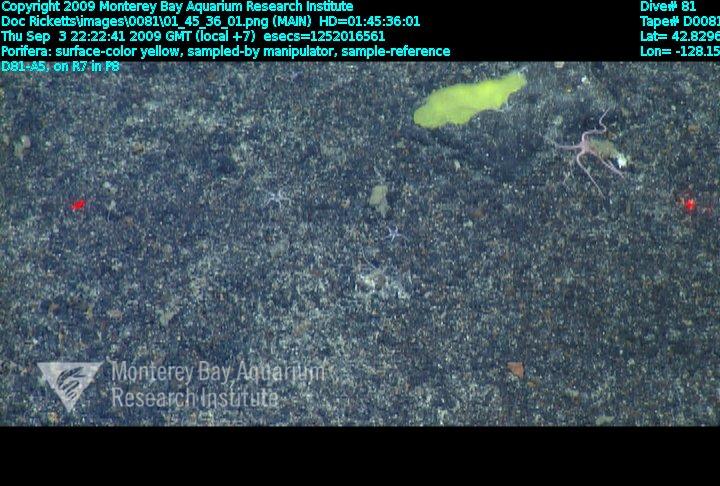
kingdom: Animalia
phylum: Porifera
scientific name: Porifera
